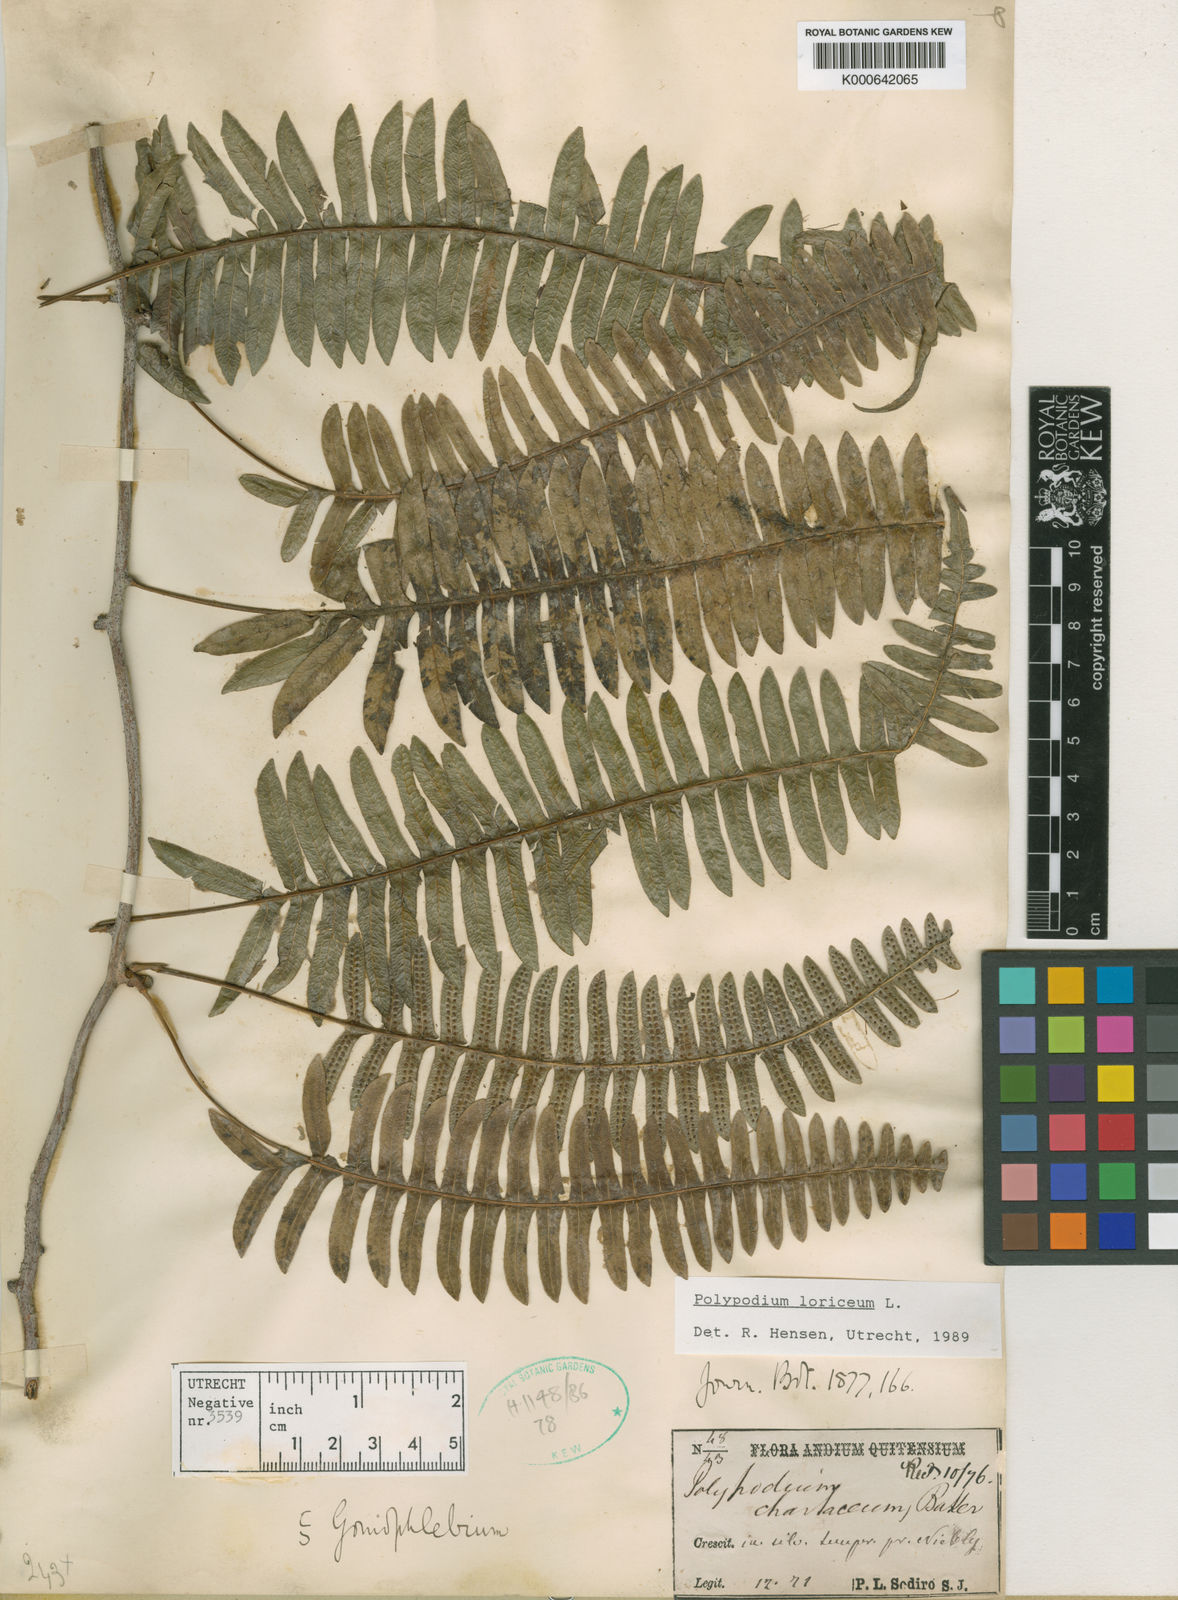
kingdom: Plantae
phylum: Tracheophyta
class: Polypodiopsida
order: Polypodiales
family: Polypodiaceae
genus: Serpocaulon
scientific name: Serpocaulon loriceum
